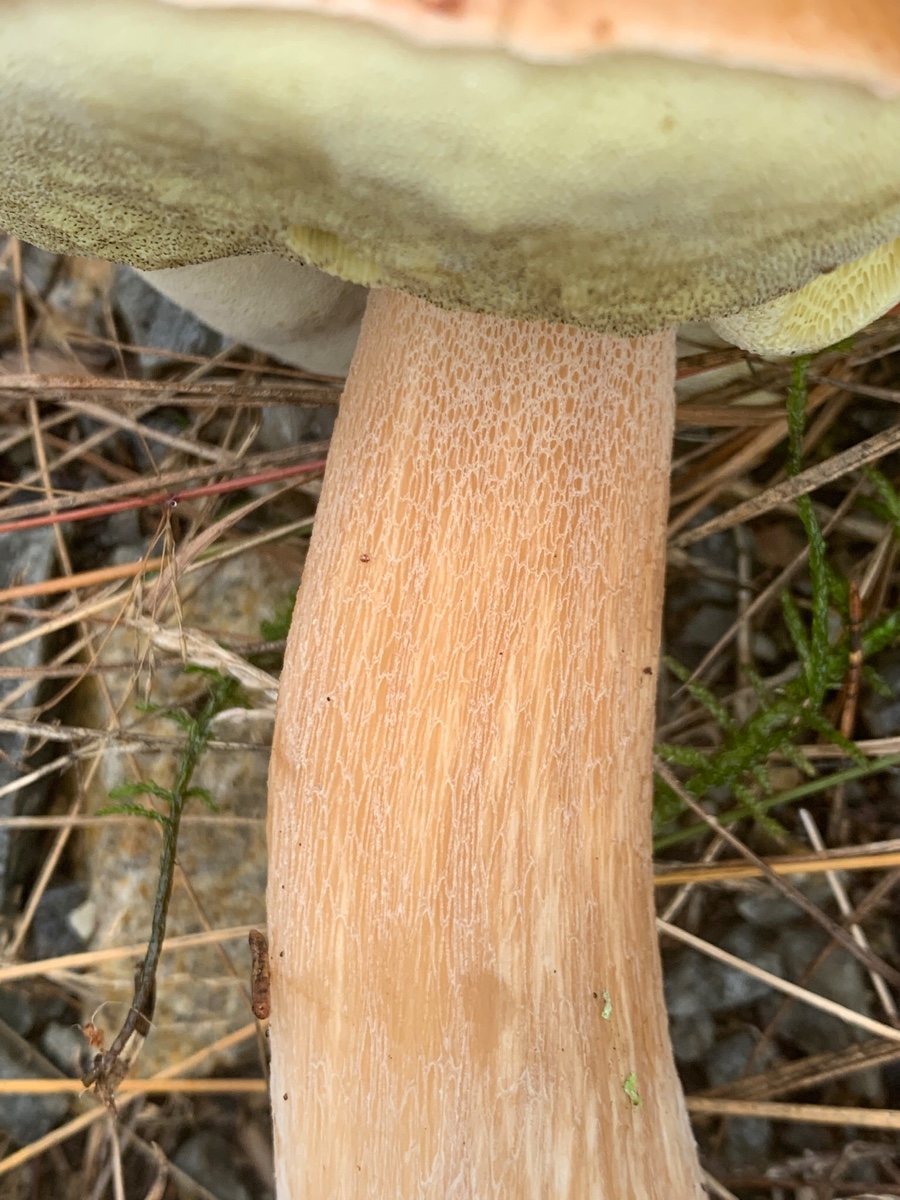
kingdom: Fungi
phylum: Basidiomycota
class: Agaricomycetes
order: Boletales
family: Boletaceae
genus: Boletus
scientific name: Boletus edulis
